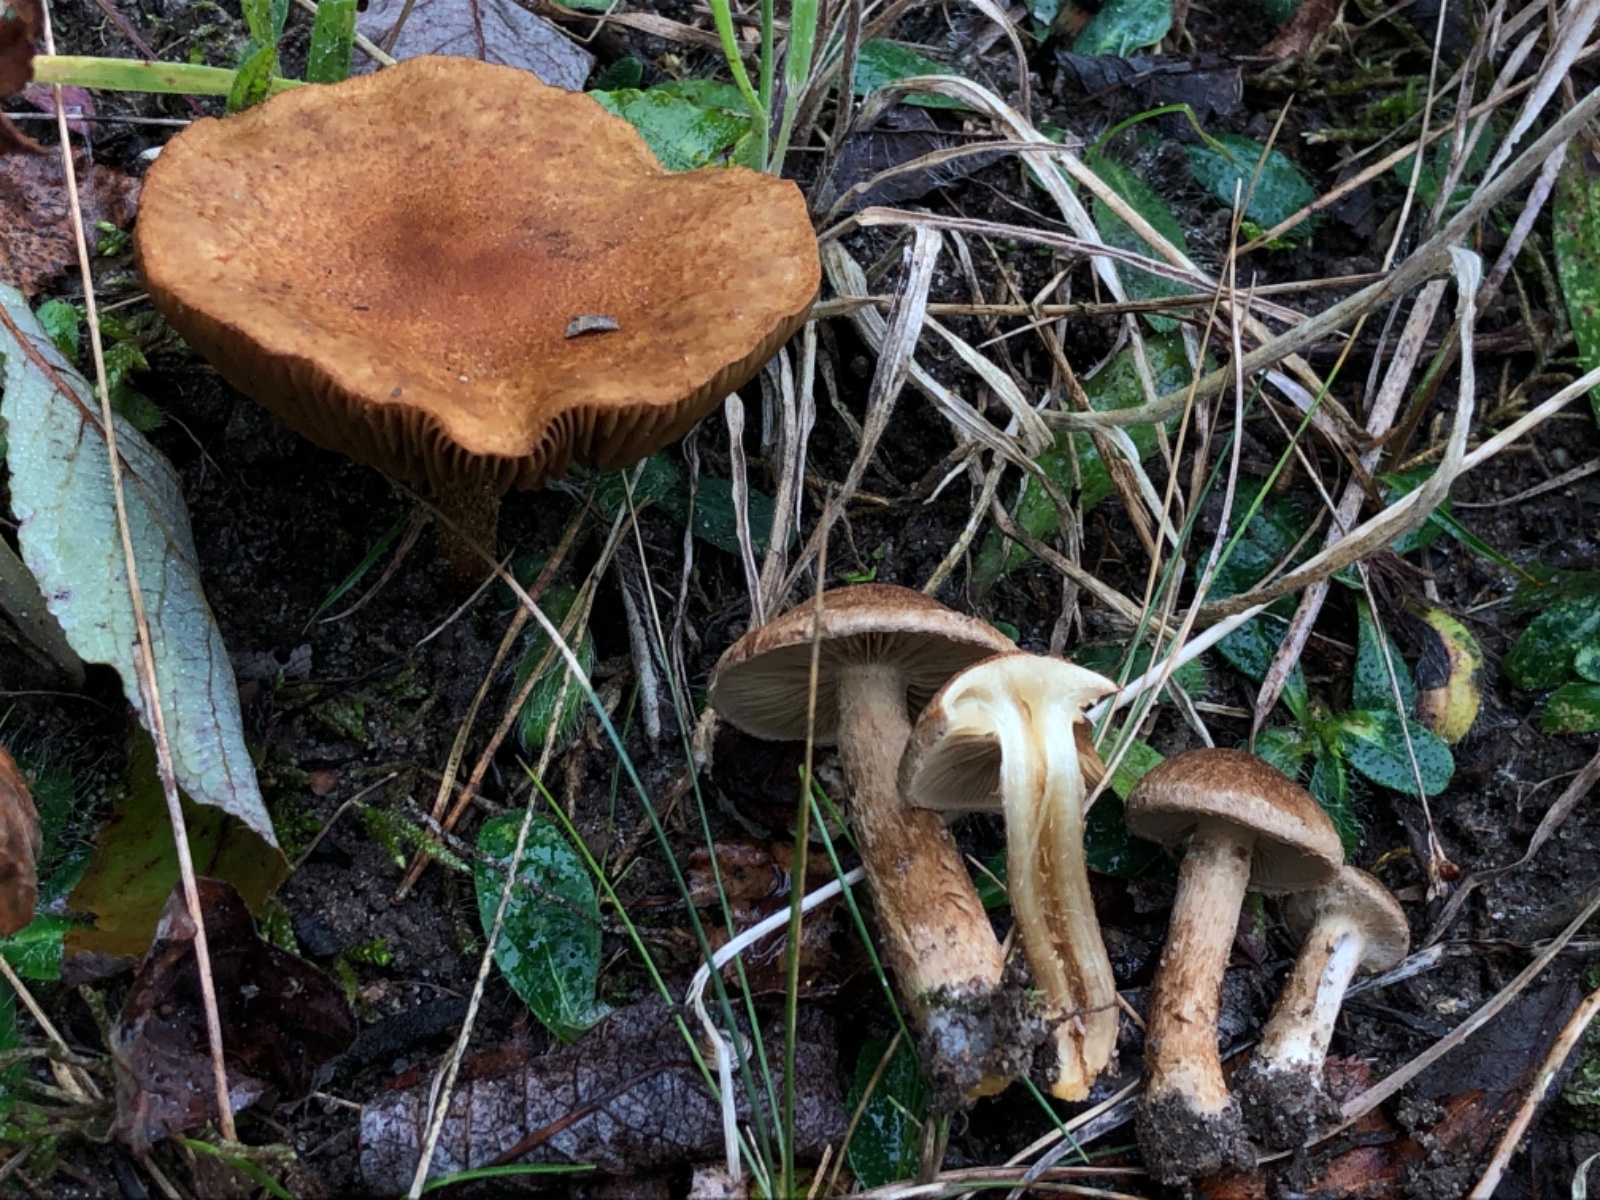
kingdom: Fungi
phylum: Basidiomycota
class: Agaricomycetes
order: Agaricales
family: Inocybaceae
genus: Mallocybe
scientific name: Mallocybe plebeia
